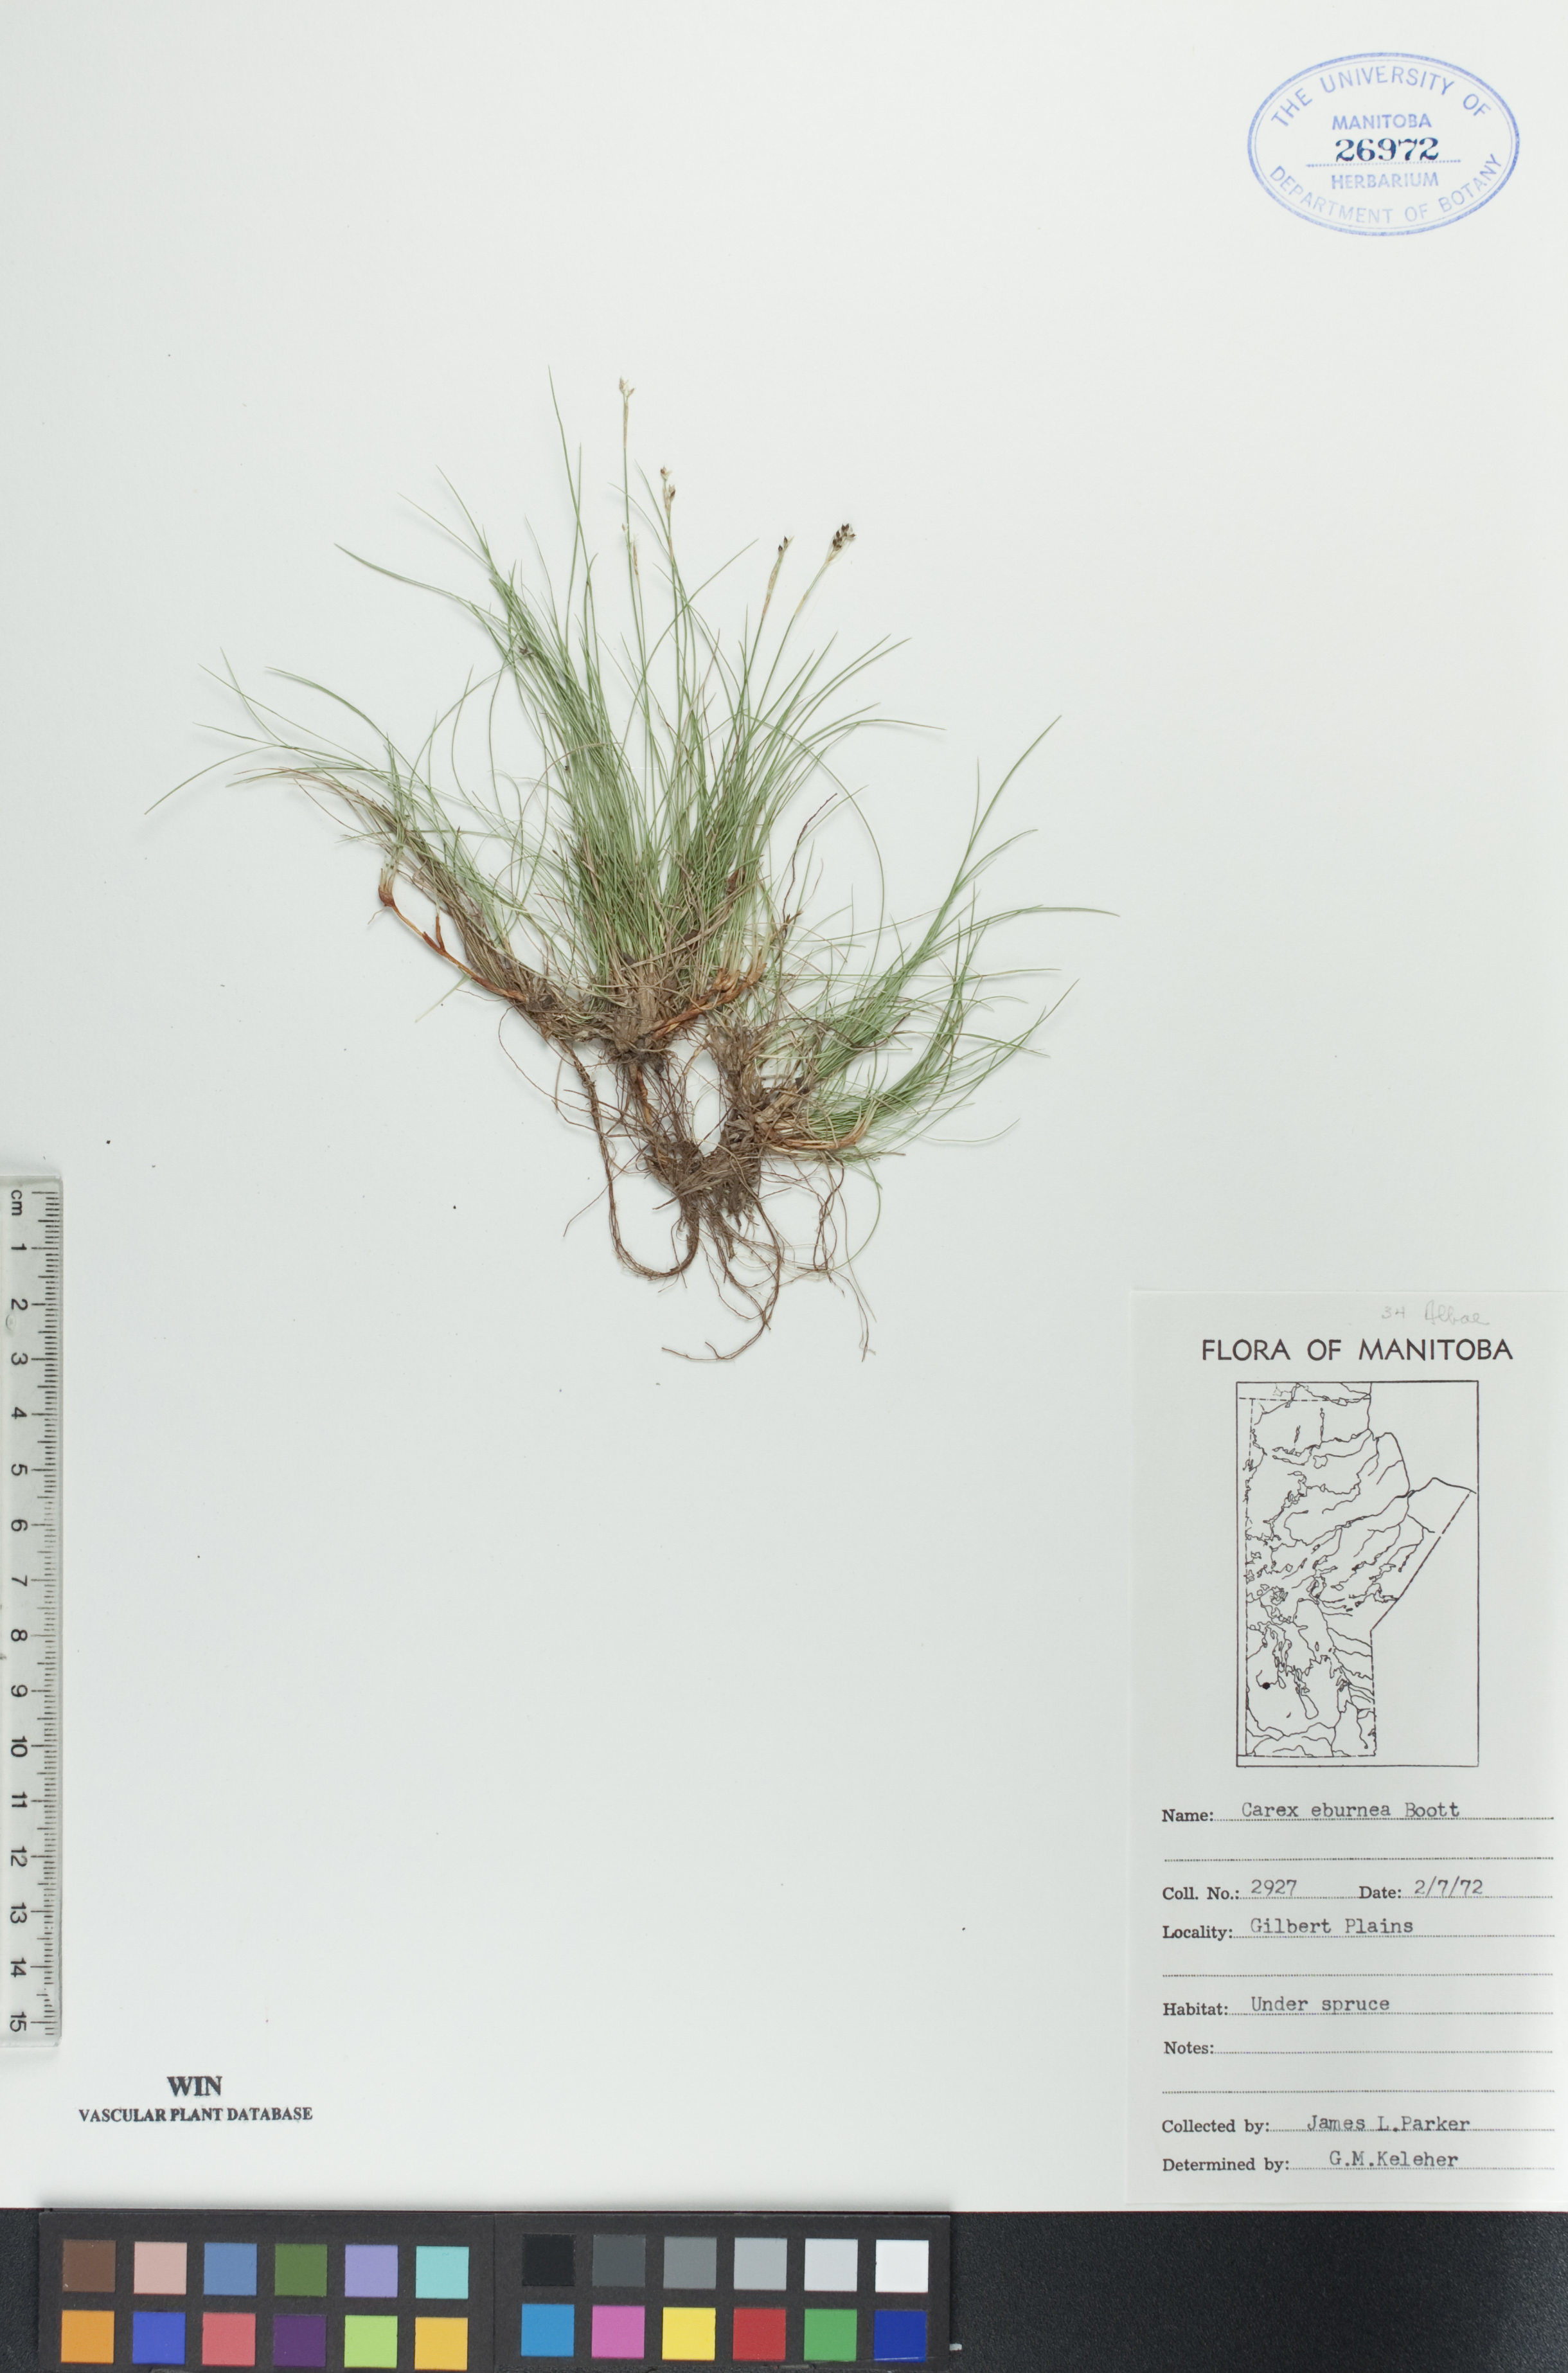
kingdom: Plantae
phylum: Tracheophyta
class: Liliopsida
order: Poales
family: Cyperaceae
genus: Carex
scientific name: Carex eburnea
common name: Bristle-leaved sedge
